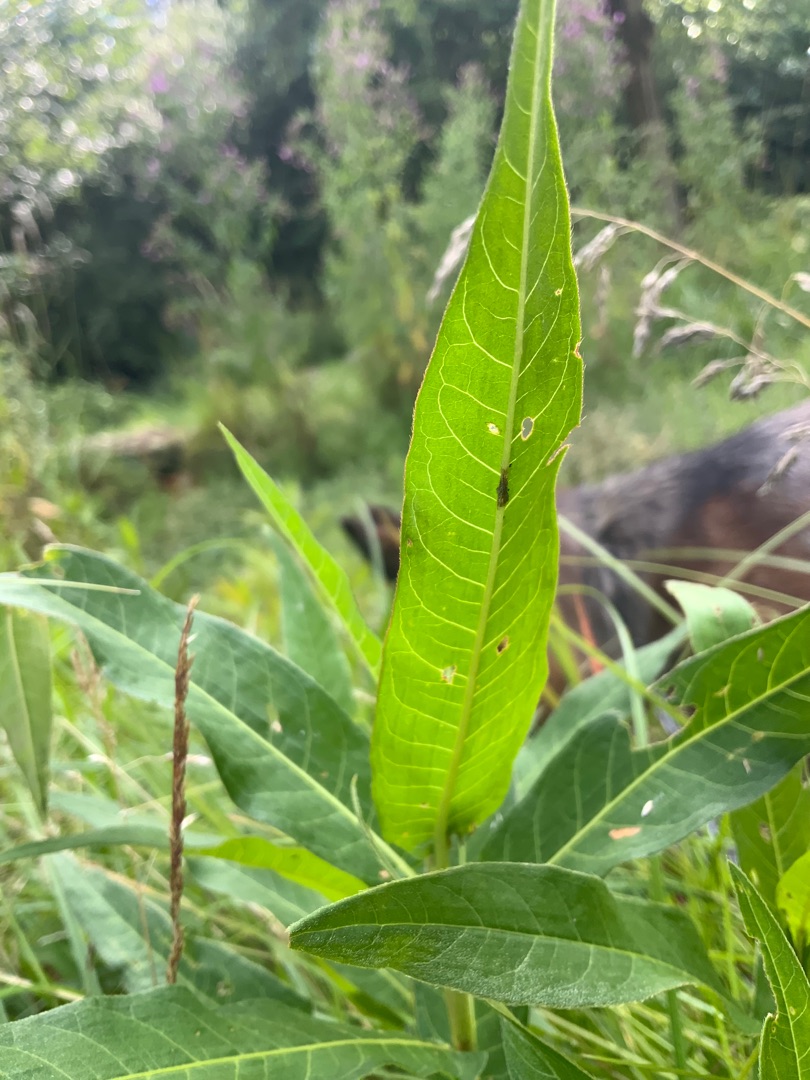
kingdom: Plantae
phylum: Tracheophyta
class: Magnoliopsida
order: Caryophyllales
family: Polygonaceae
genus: Persicaria
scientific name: Persicaria amphibia
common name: Vand-pileurt
